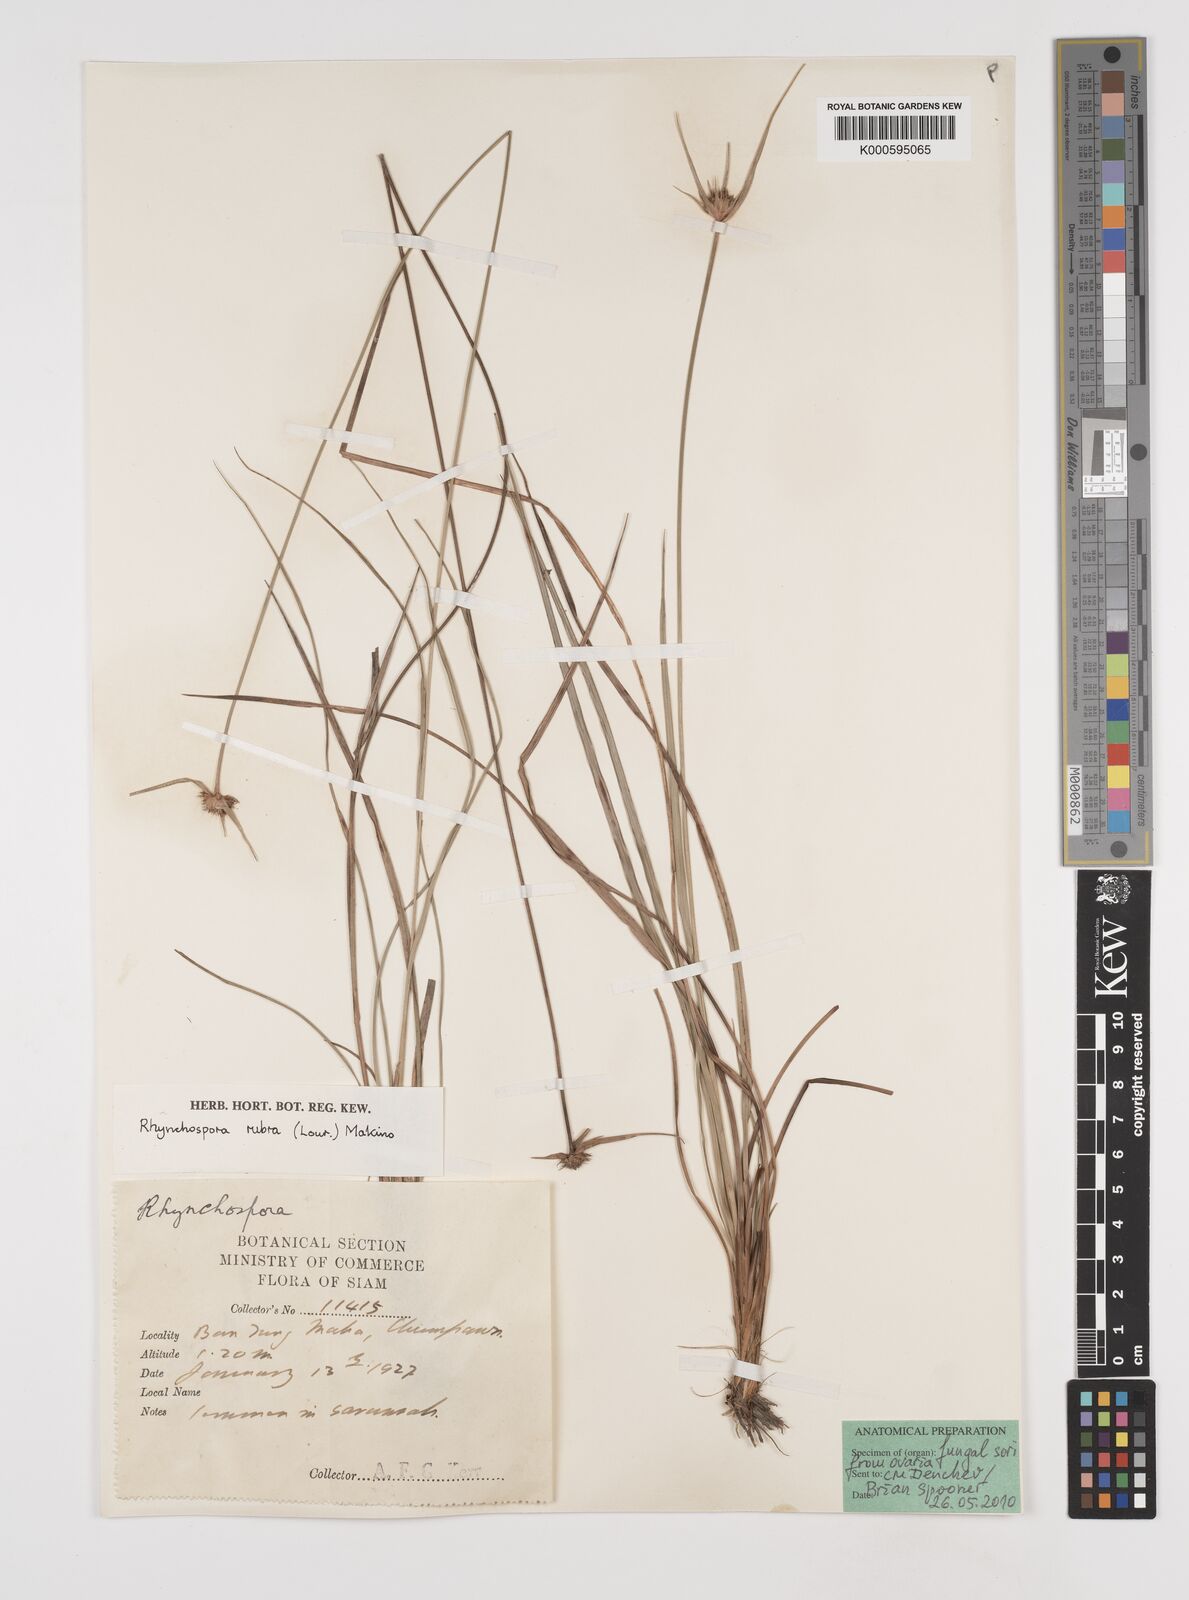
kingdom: Plantae
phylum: Tracheophyta
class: Liliopsida
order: Poales
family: Cyperaceae
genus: Rhynchospora
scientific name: Rhynchospora rubra
